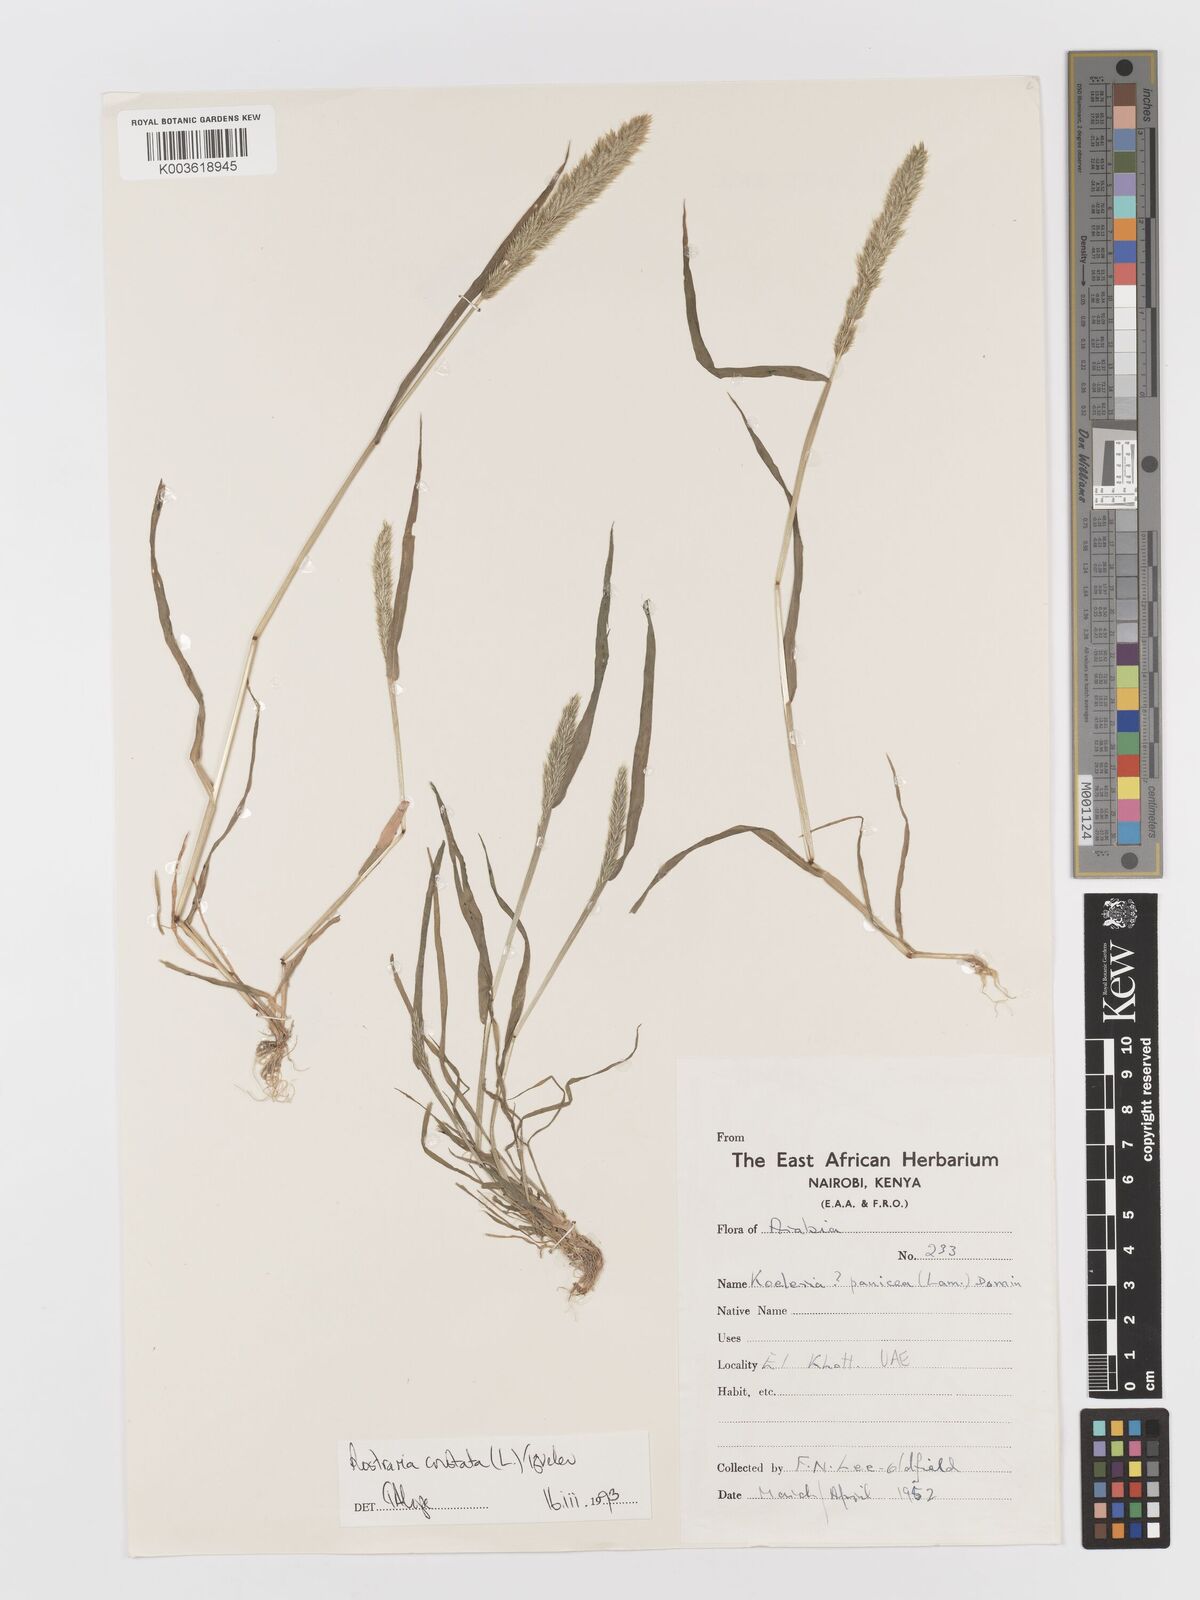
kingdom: Plantae
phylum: Tracheophyta
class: Liliopsida
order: Poales
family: Poaceae
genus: Rostraria
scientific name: Rostraria cristata
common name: Mediterranean hair-grass
